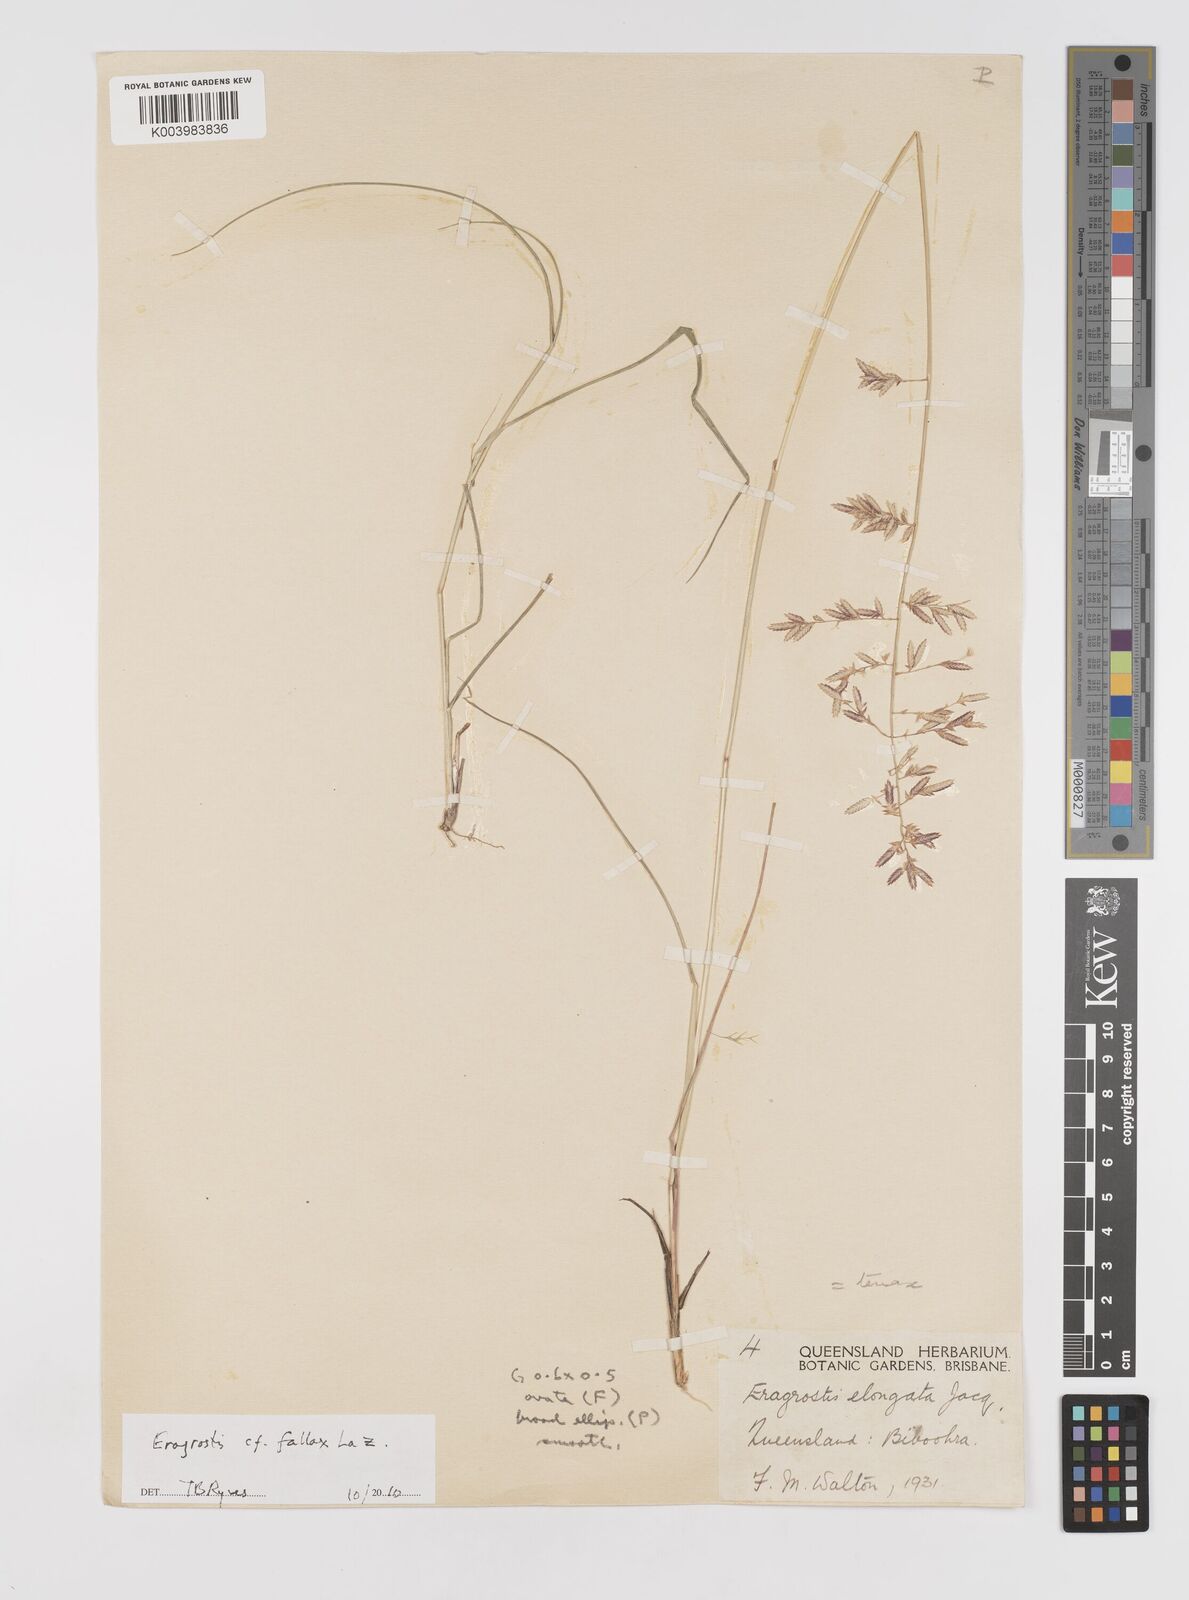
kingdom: Plantae
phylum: Tracheophyta
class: Liliopsida
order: Poales
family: Poaceae
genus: Eragrostis
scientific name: Eragrostis fallax
